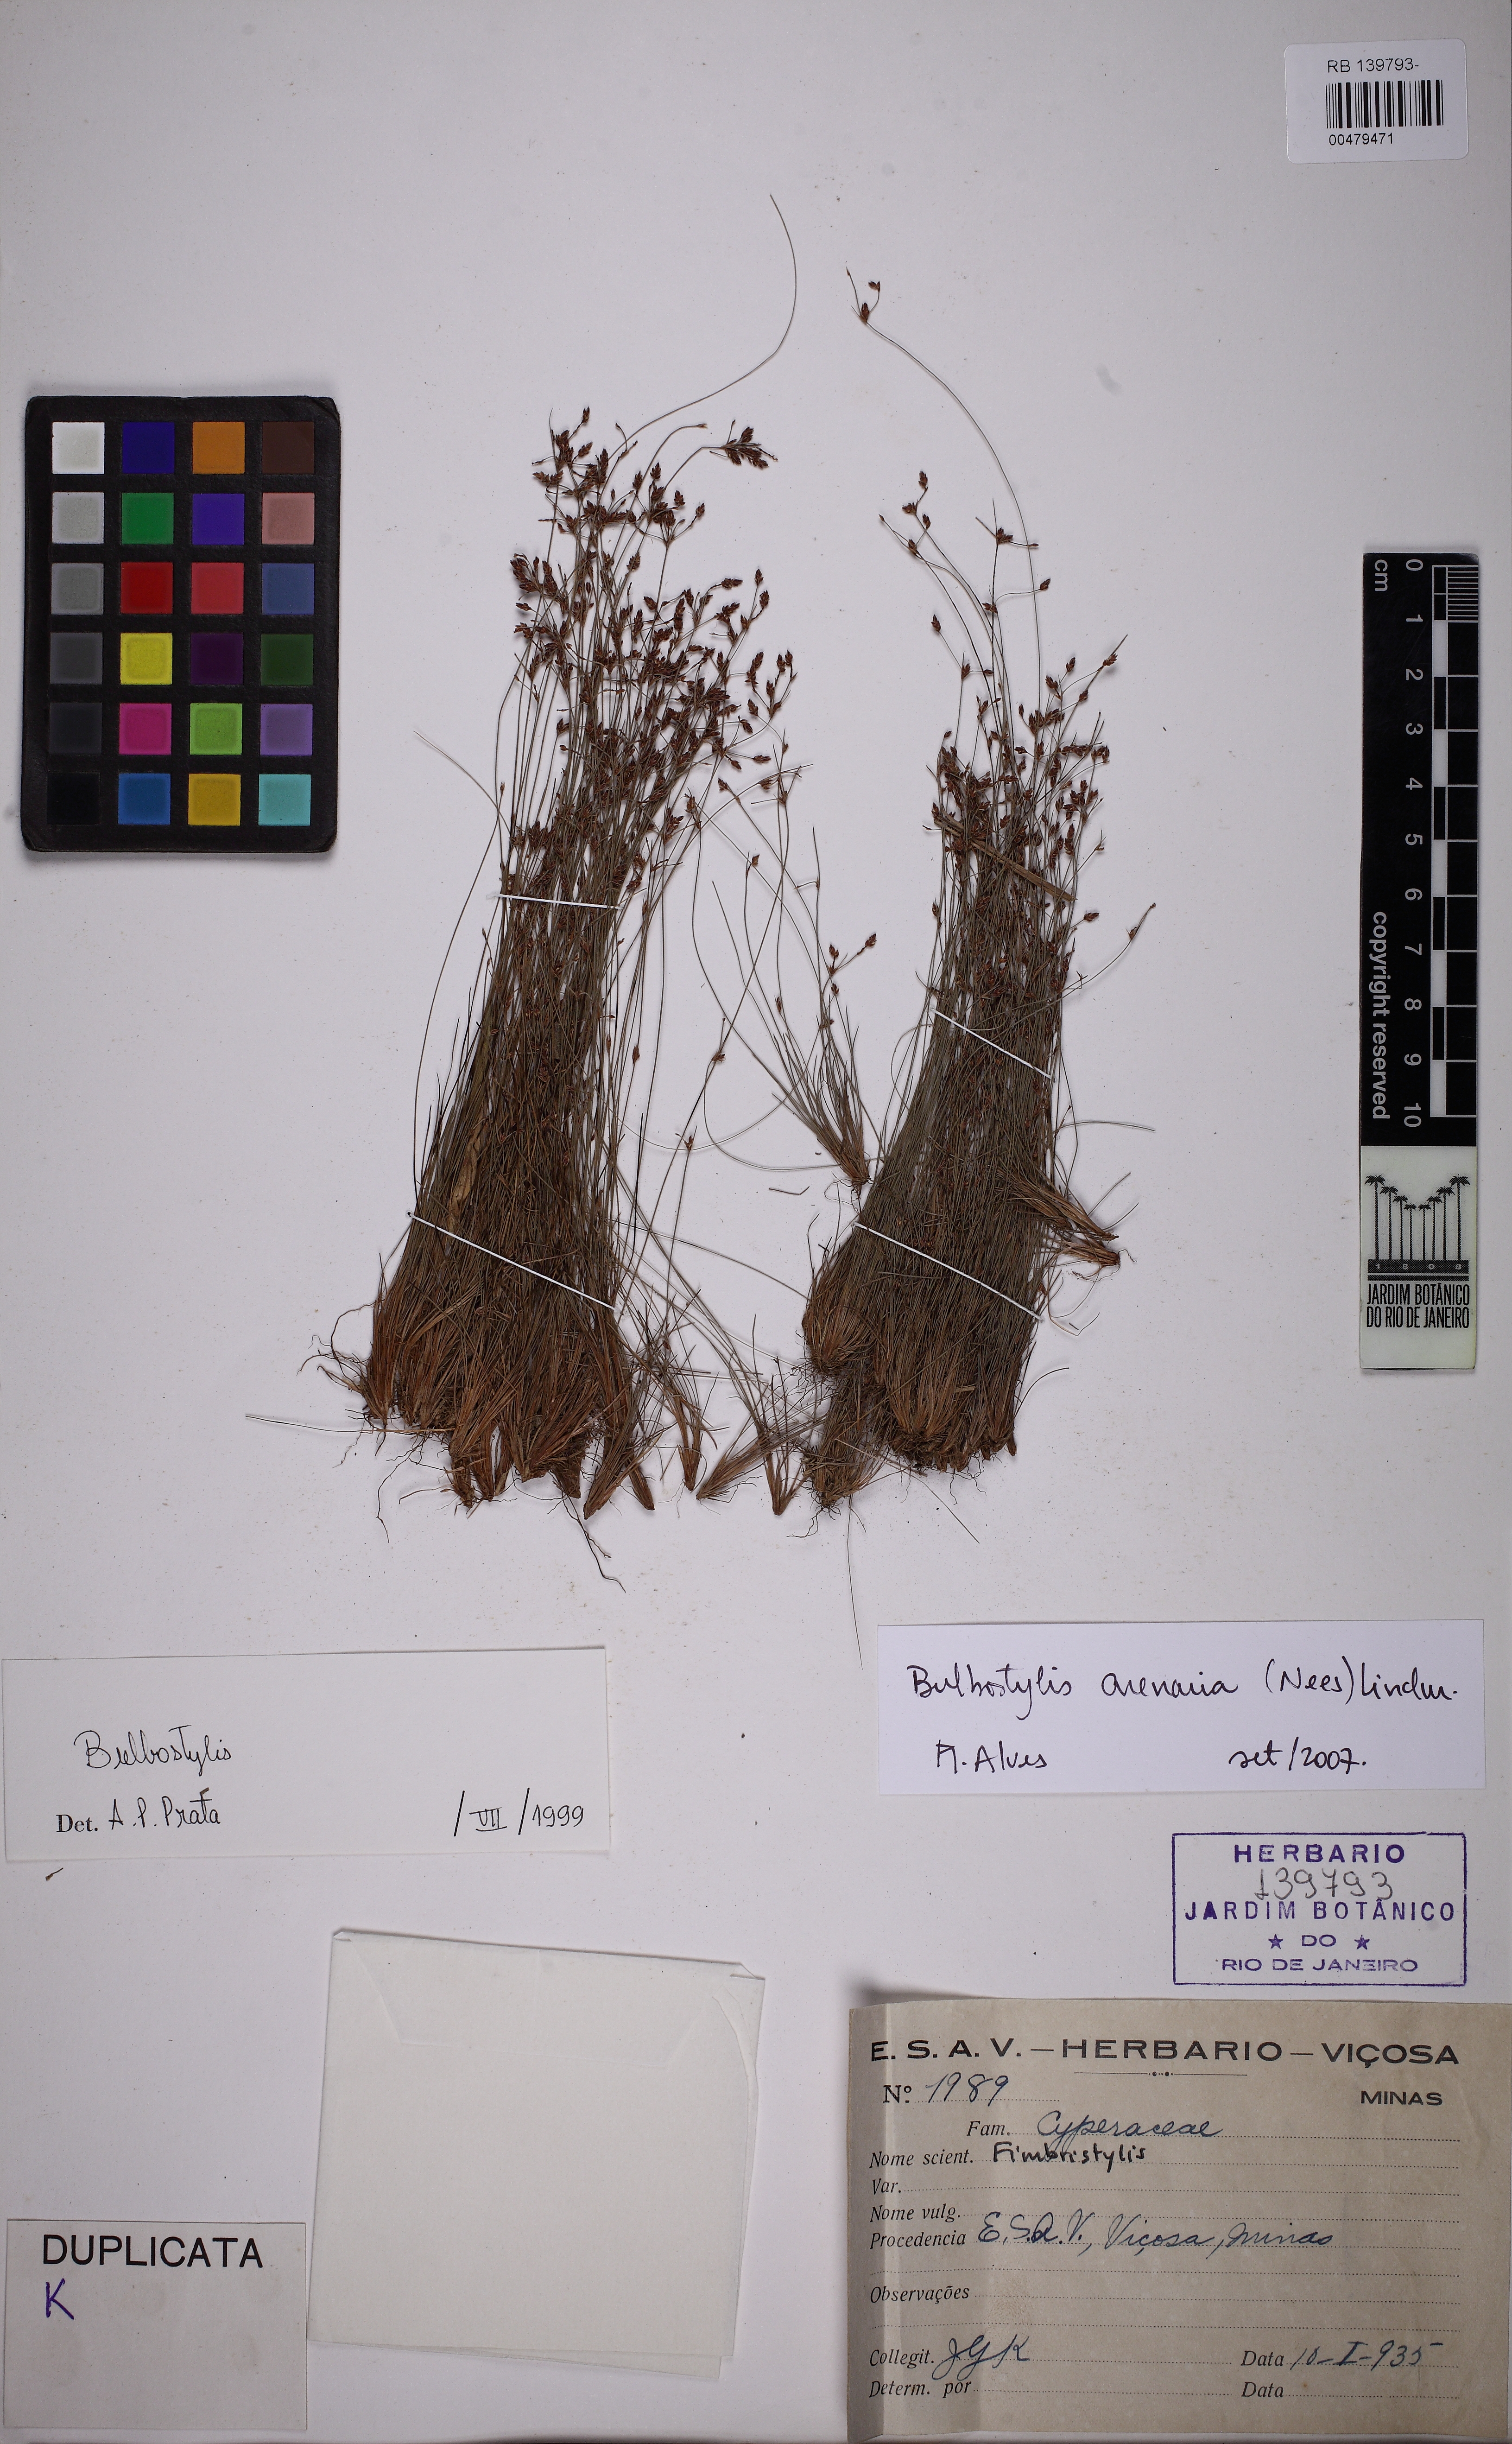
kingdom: Plantae
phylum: Tracheophyta
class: Liliopsida
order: Poales
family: Cyperaceae
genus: Bulbostylis
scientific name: Bulbostylis juncoides
